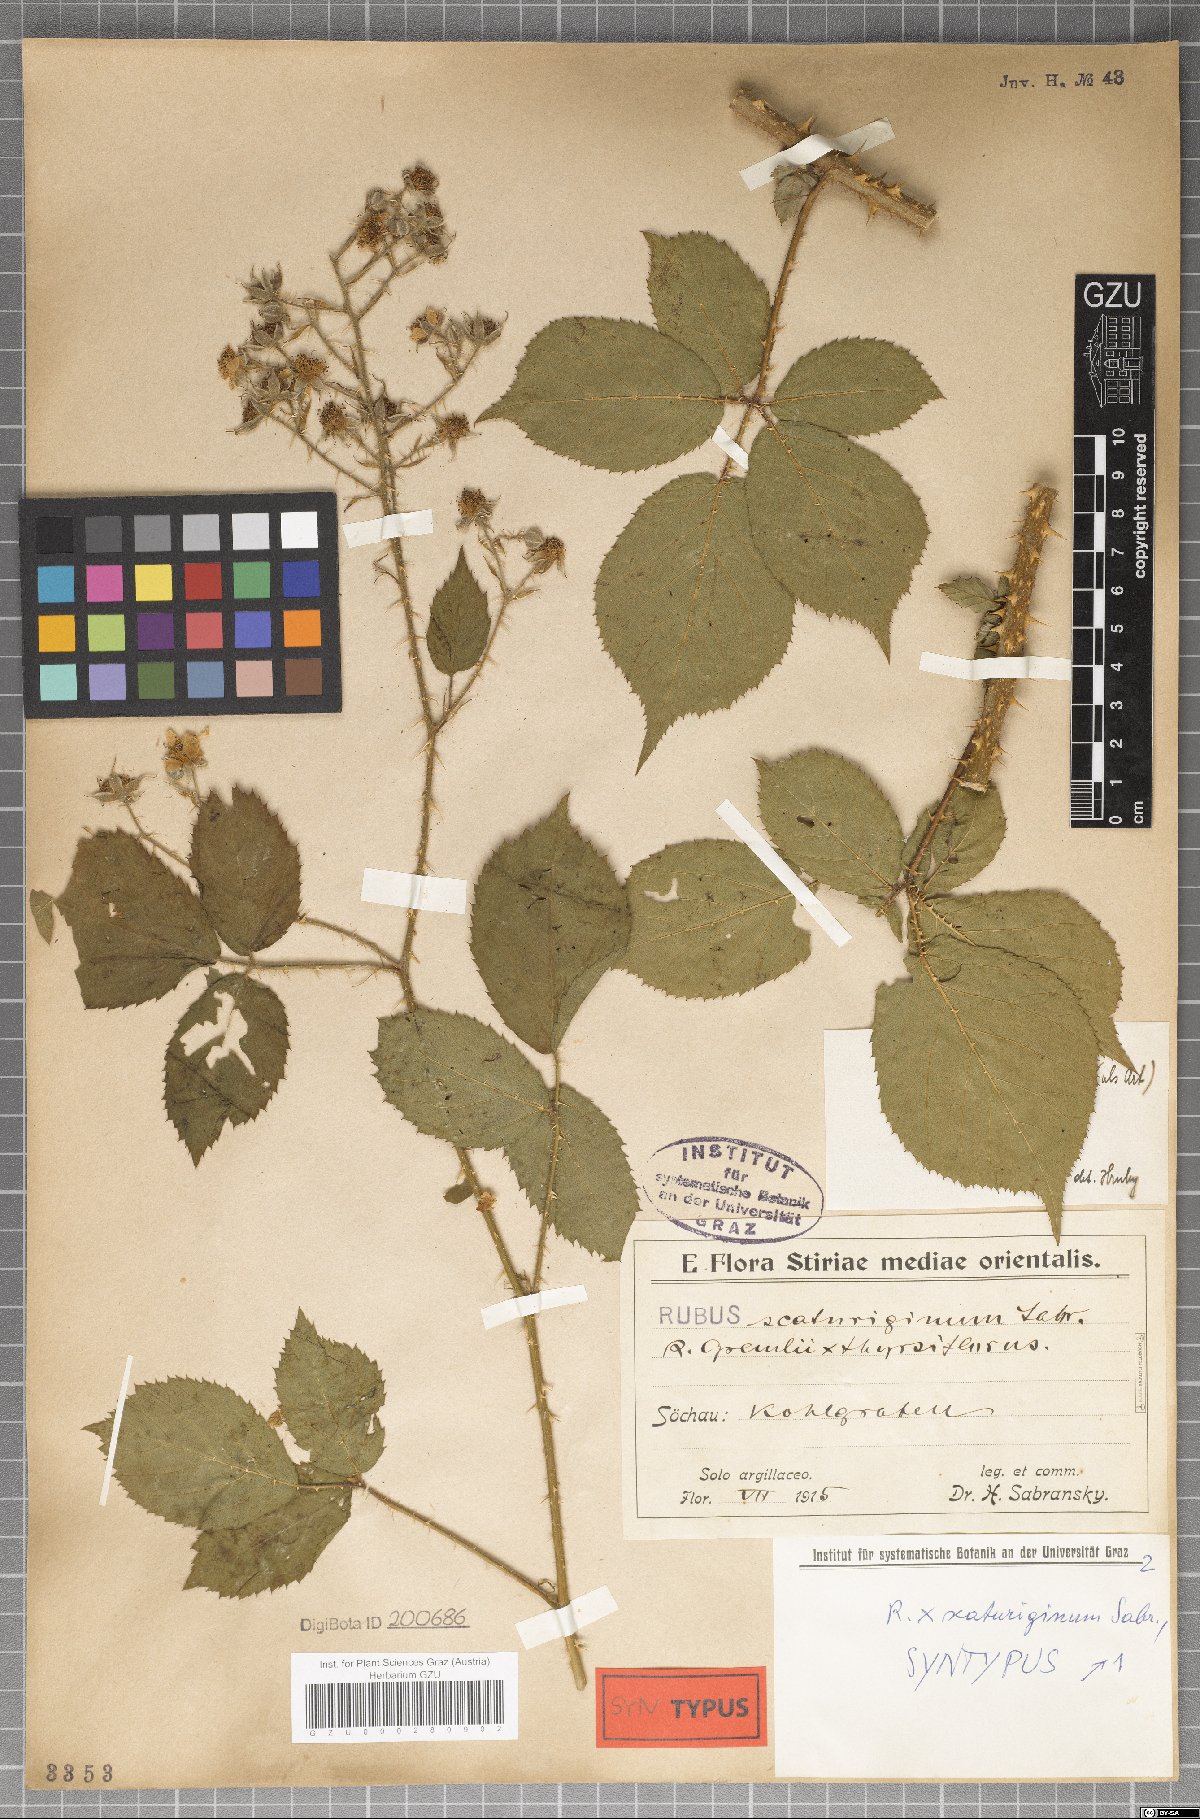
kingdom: Plantae
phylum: Tracheophyta
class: Magnoliopsida
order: Rosales
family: Rosaceae
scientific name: Rosaceae
